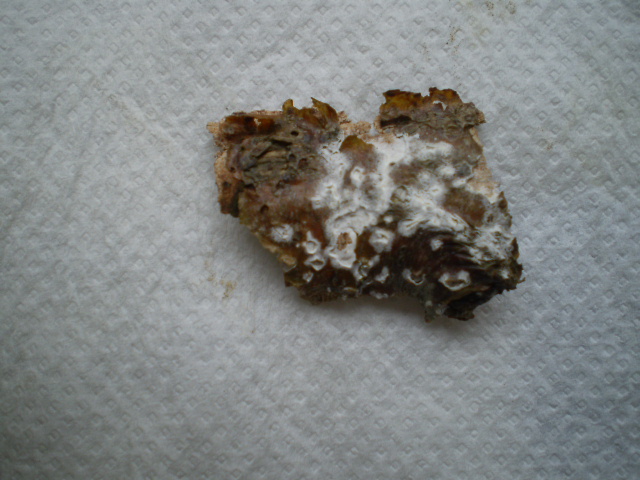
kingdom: Fungi
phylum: Basidiomycota
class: Agaricomycetes
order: Corticiales
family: Corticiaceae
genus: Lyomyces
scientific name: Lyomyces sambuci
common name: almindelig hyldehinde
